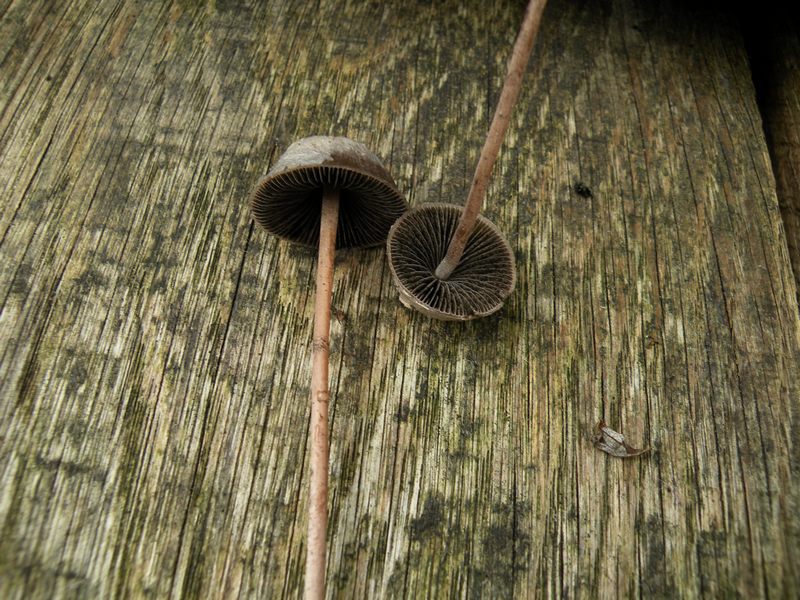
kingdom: Fungi
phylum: Basidiomycota
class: Agaricomycetes
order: Agaricales
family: Bolbitiaceae
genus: Panaeolus
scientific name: Panaeolus acuminatus
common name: høj glanshat
